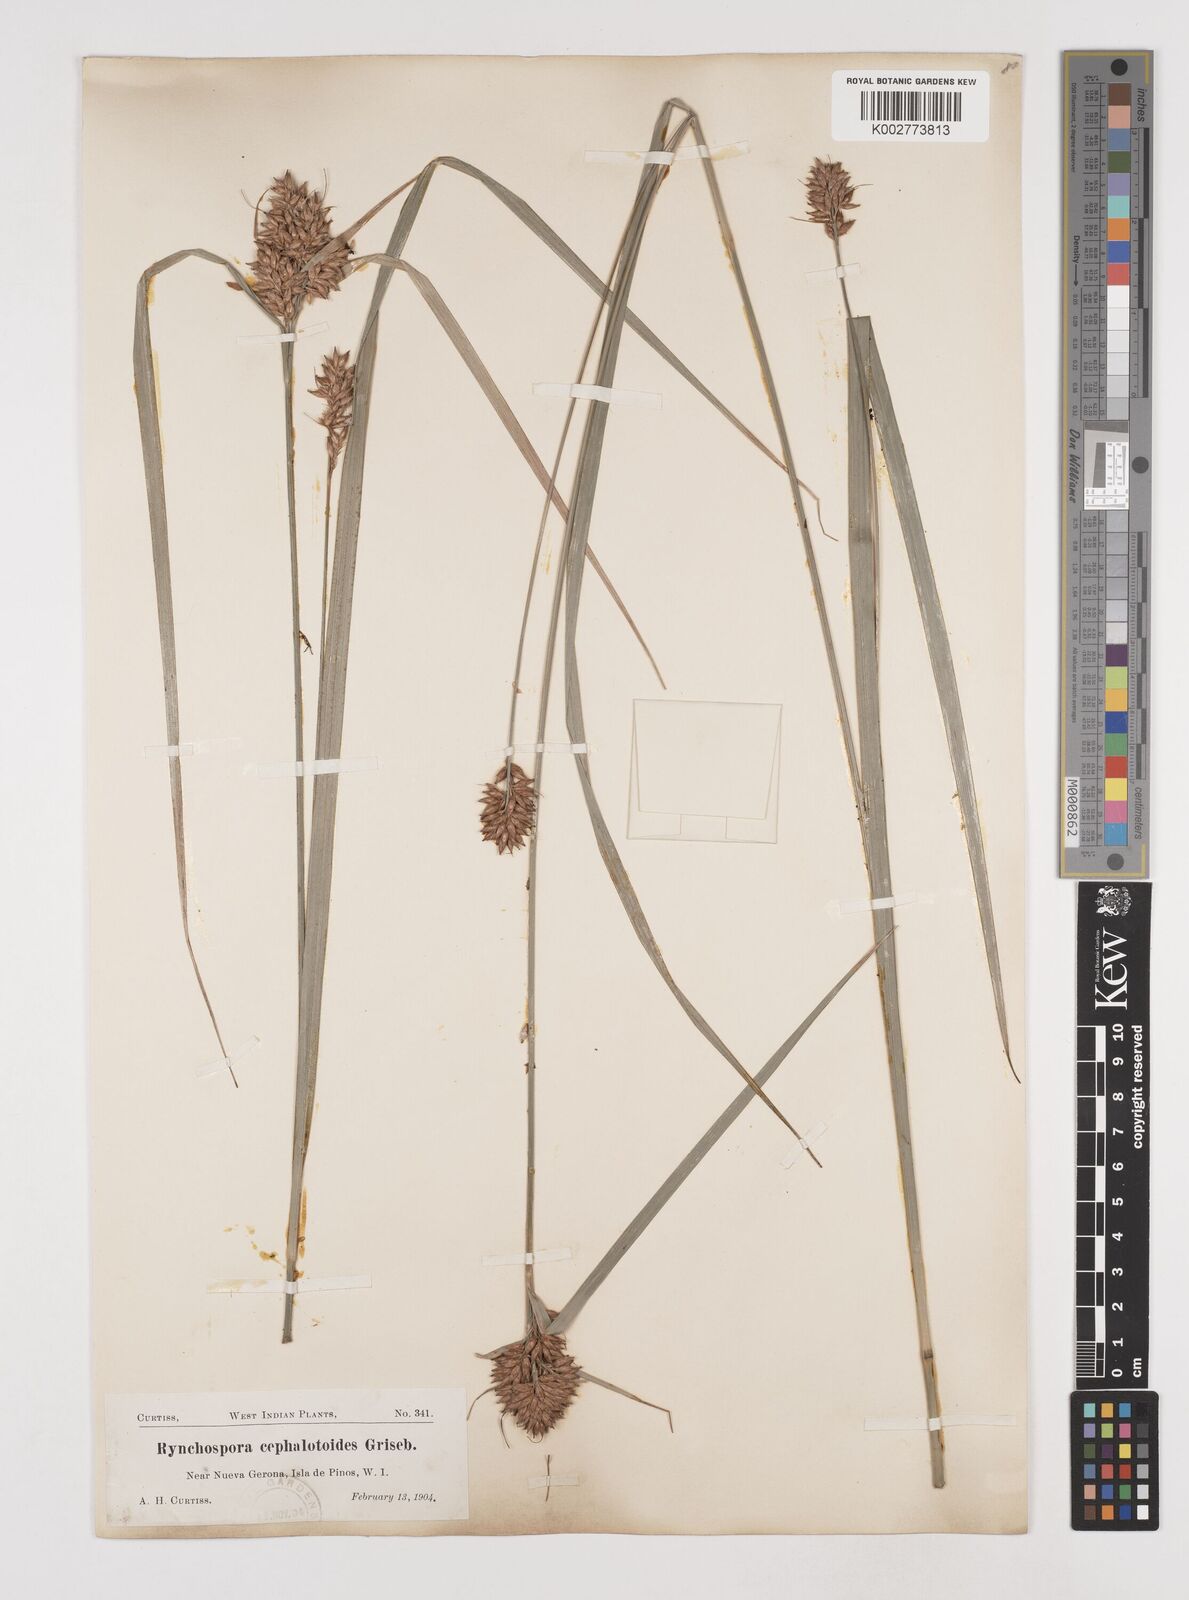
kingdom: Plantae
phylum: Tracheophyta
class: Liliopsida
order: Poales
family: Cyperaceae
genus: Rhynchospora
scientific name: Rhynchospora comata
